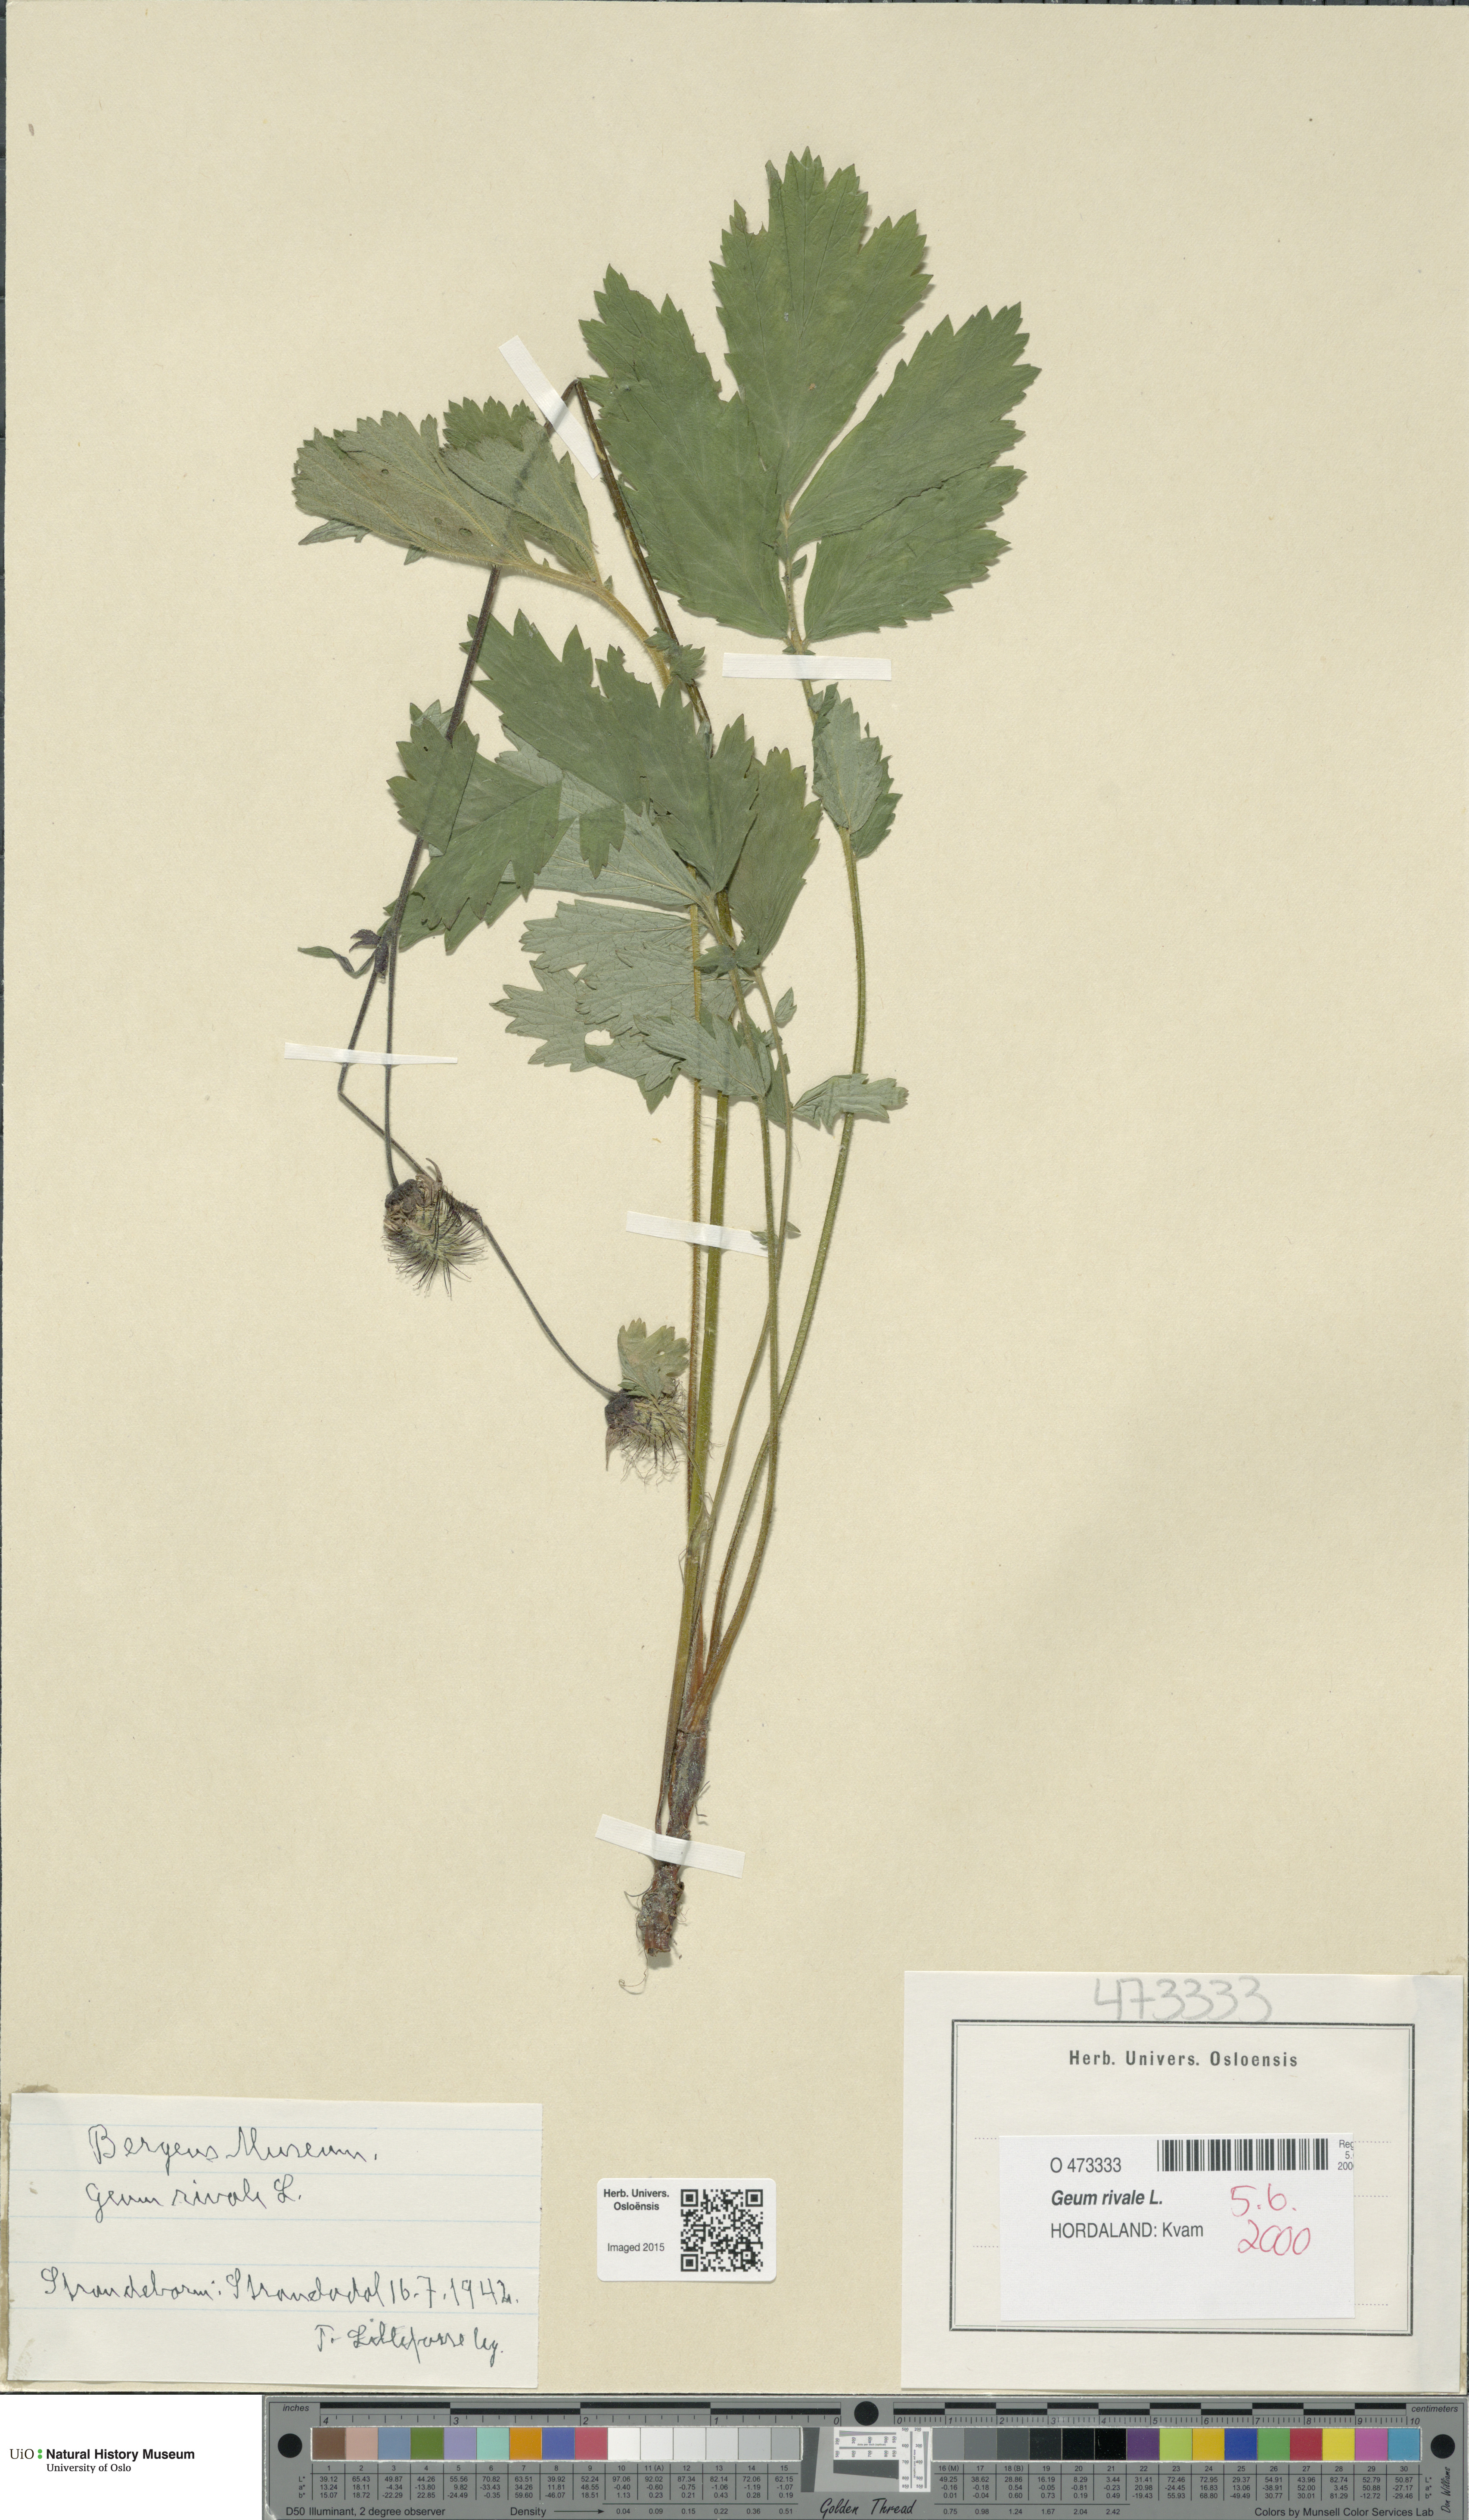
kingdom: Plantae
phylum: Tracheophyta
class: Magnoliopsida
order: Rosales
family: Rosaceae
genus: Geum
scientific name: Geum rivale
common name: Water avens
